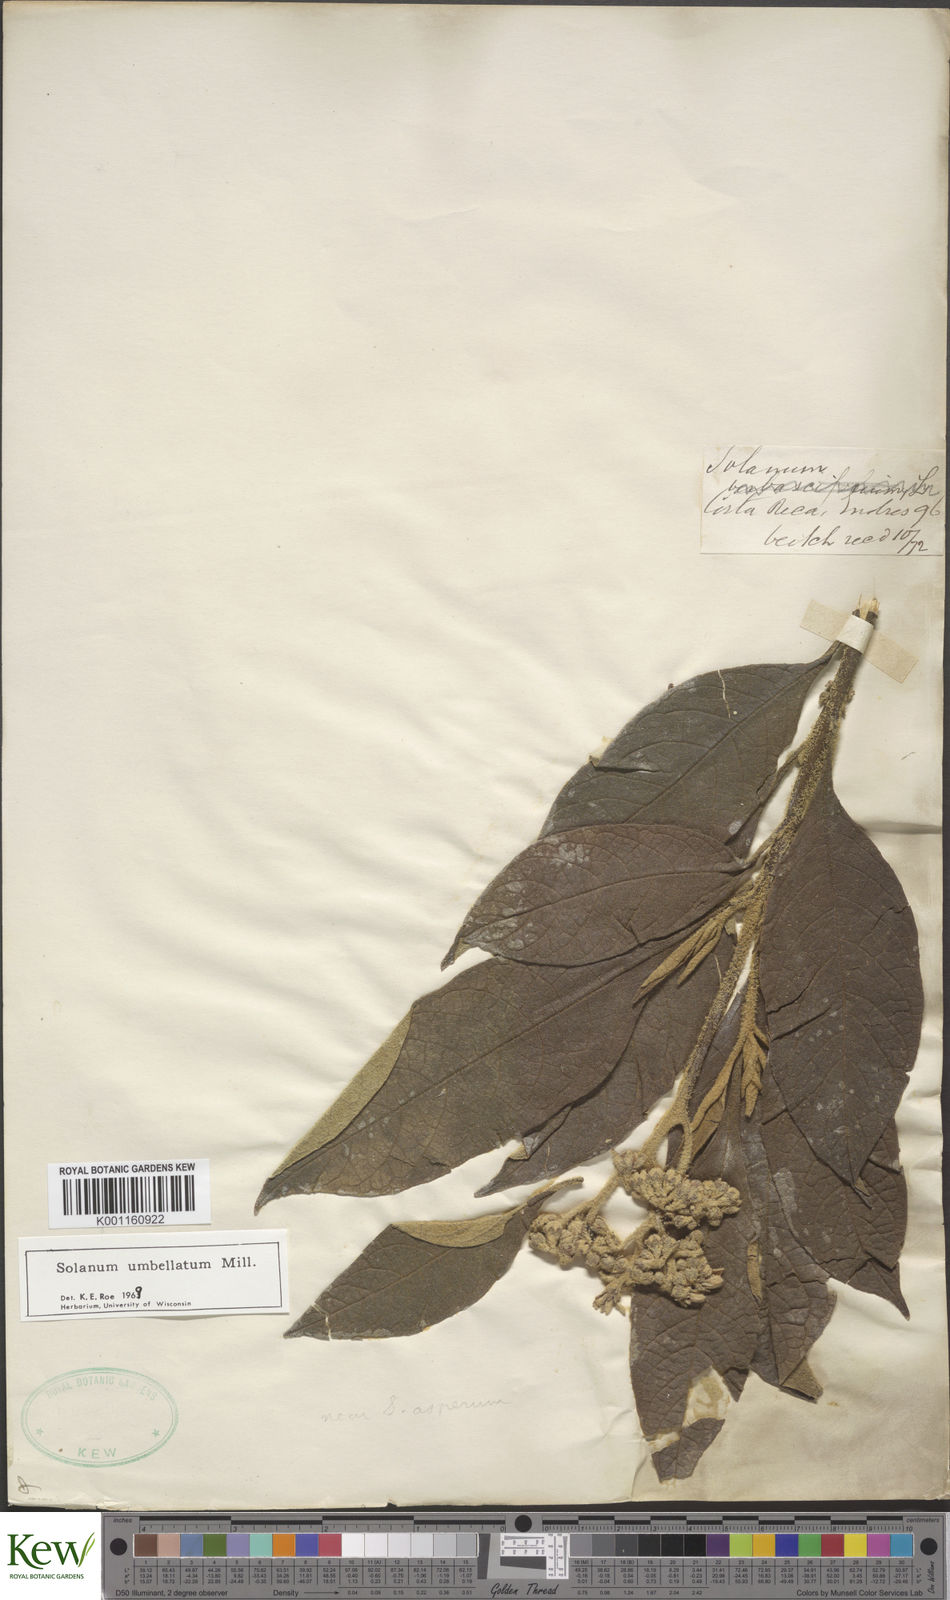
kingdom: Plantae
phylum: Tracheophyta
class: Magnoliopsida
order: Solanales
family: Solanaceae
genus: Solanum
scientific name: Solanum umbellatum
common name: Nightshade
